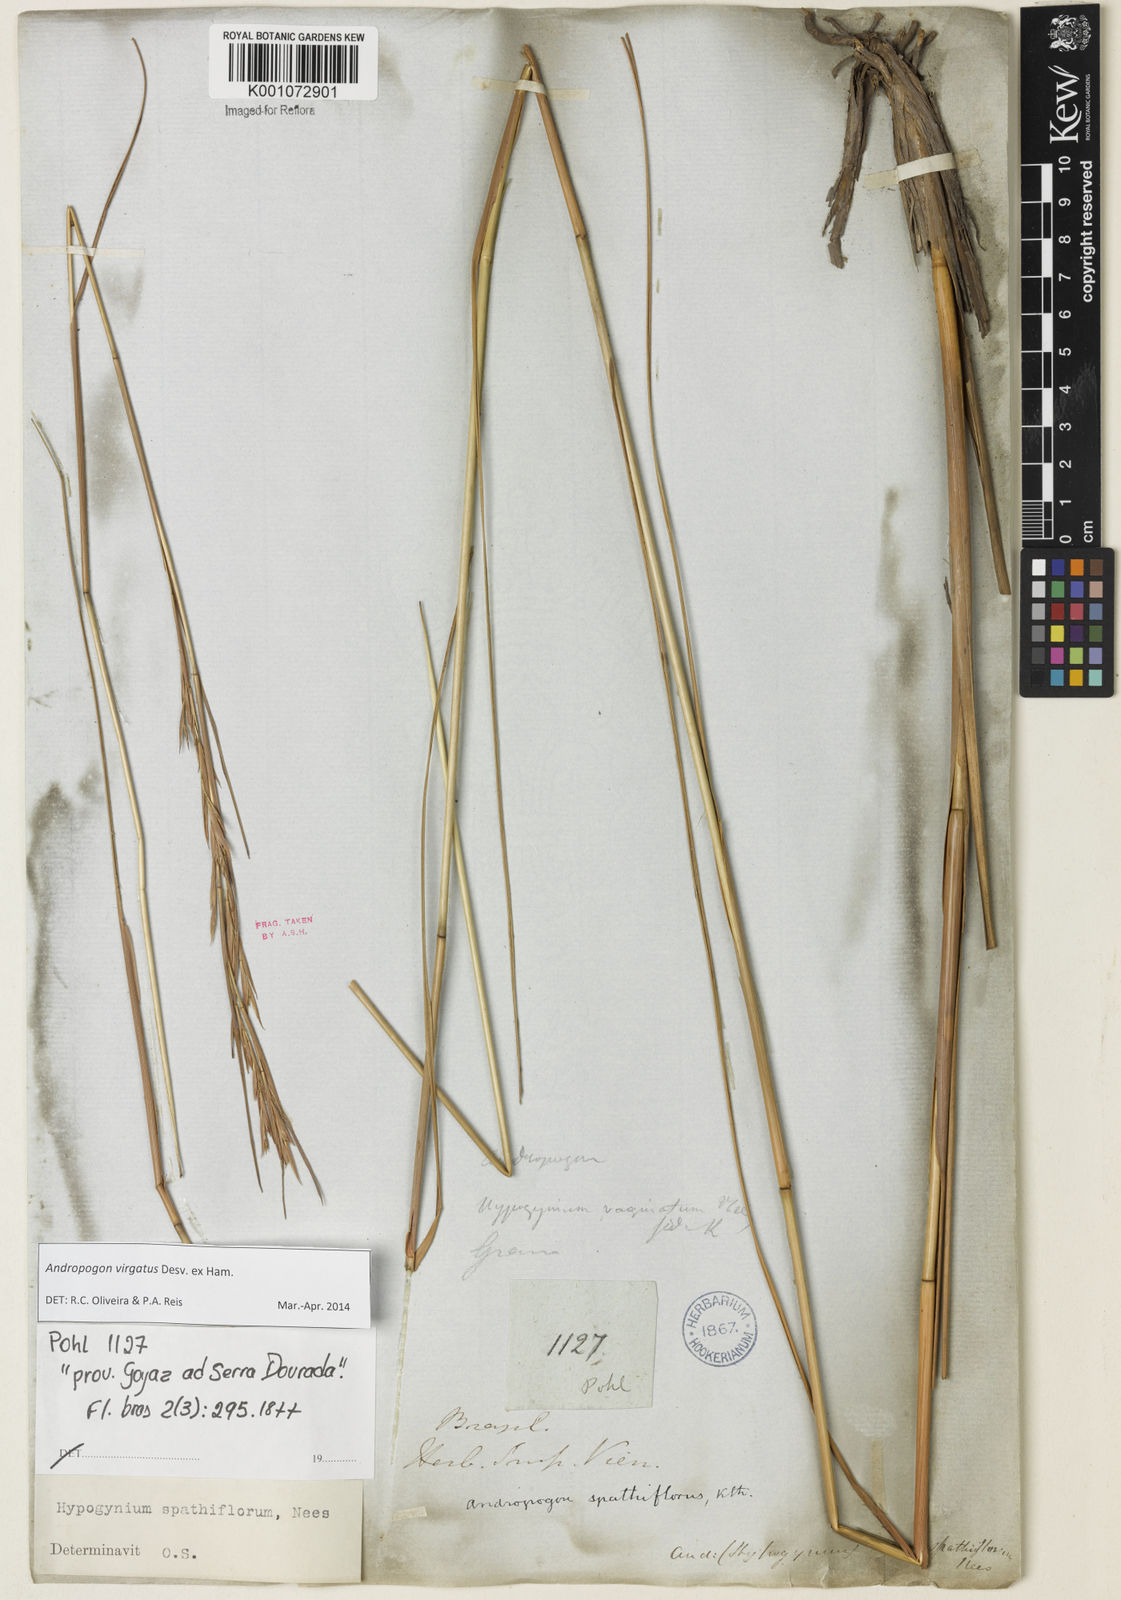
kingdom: Plantae
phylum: Tracheophyta
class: Liliopsida
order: Poales
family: Poaceae
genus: Andropogon
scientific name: Andropogon virgatus
